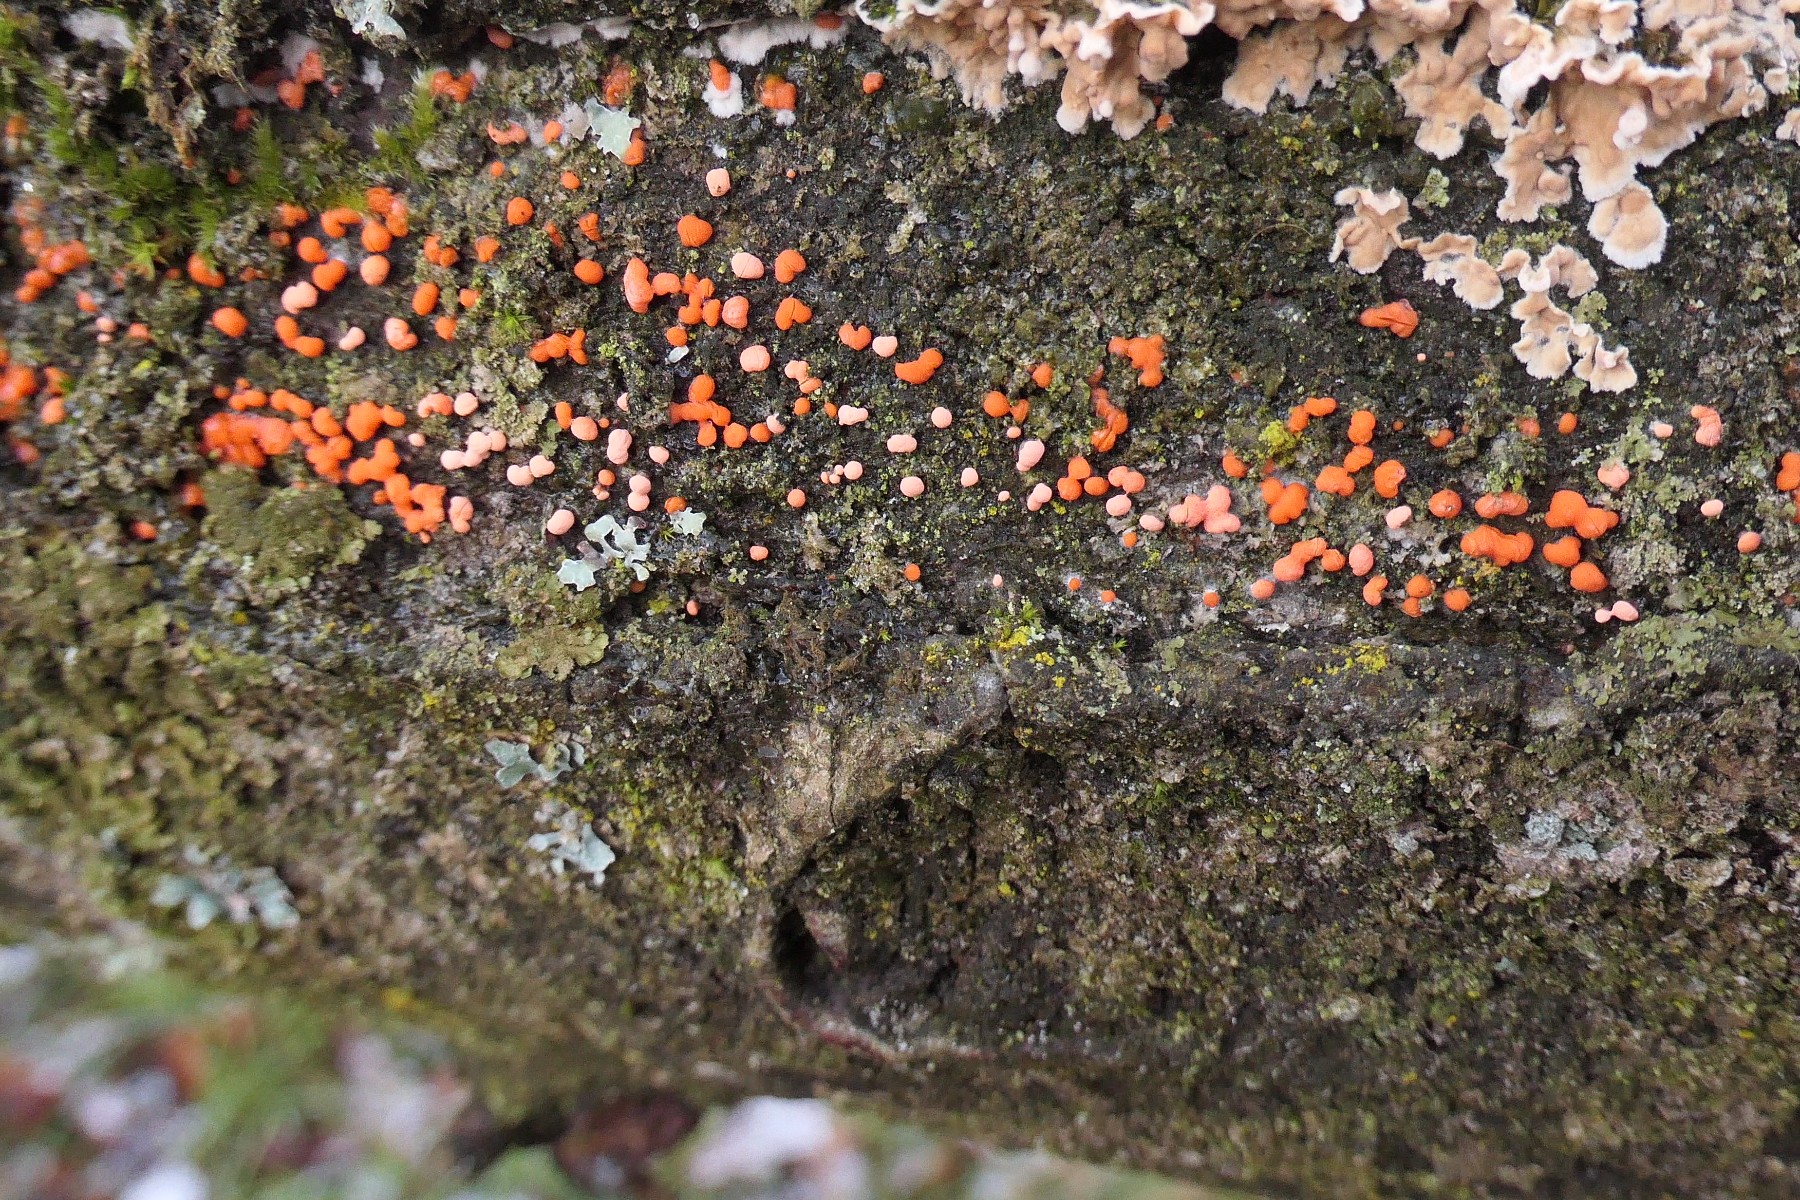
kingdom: Fungi
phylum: Ascomycota
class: Sordariomycetes
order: Hypocreales
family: Nectriaceae
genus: Nectria
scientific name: Nectria cinnabarina
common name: almindelig cinnobersvamp
